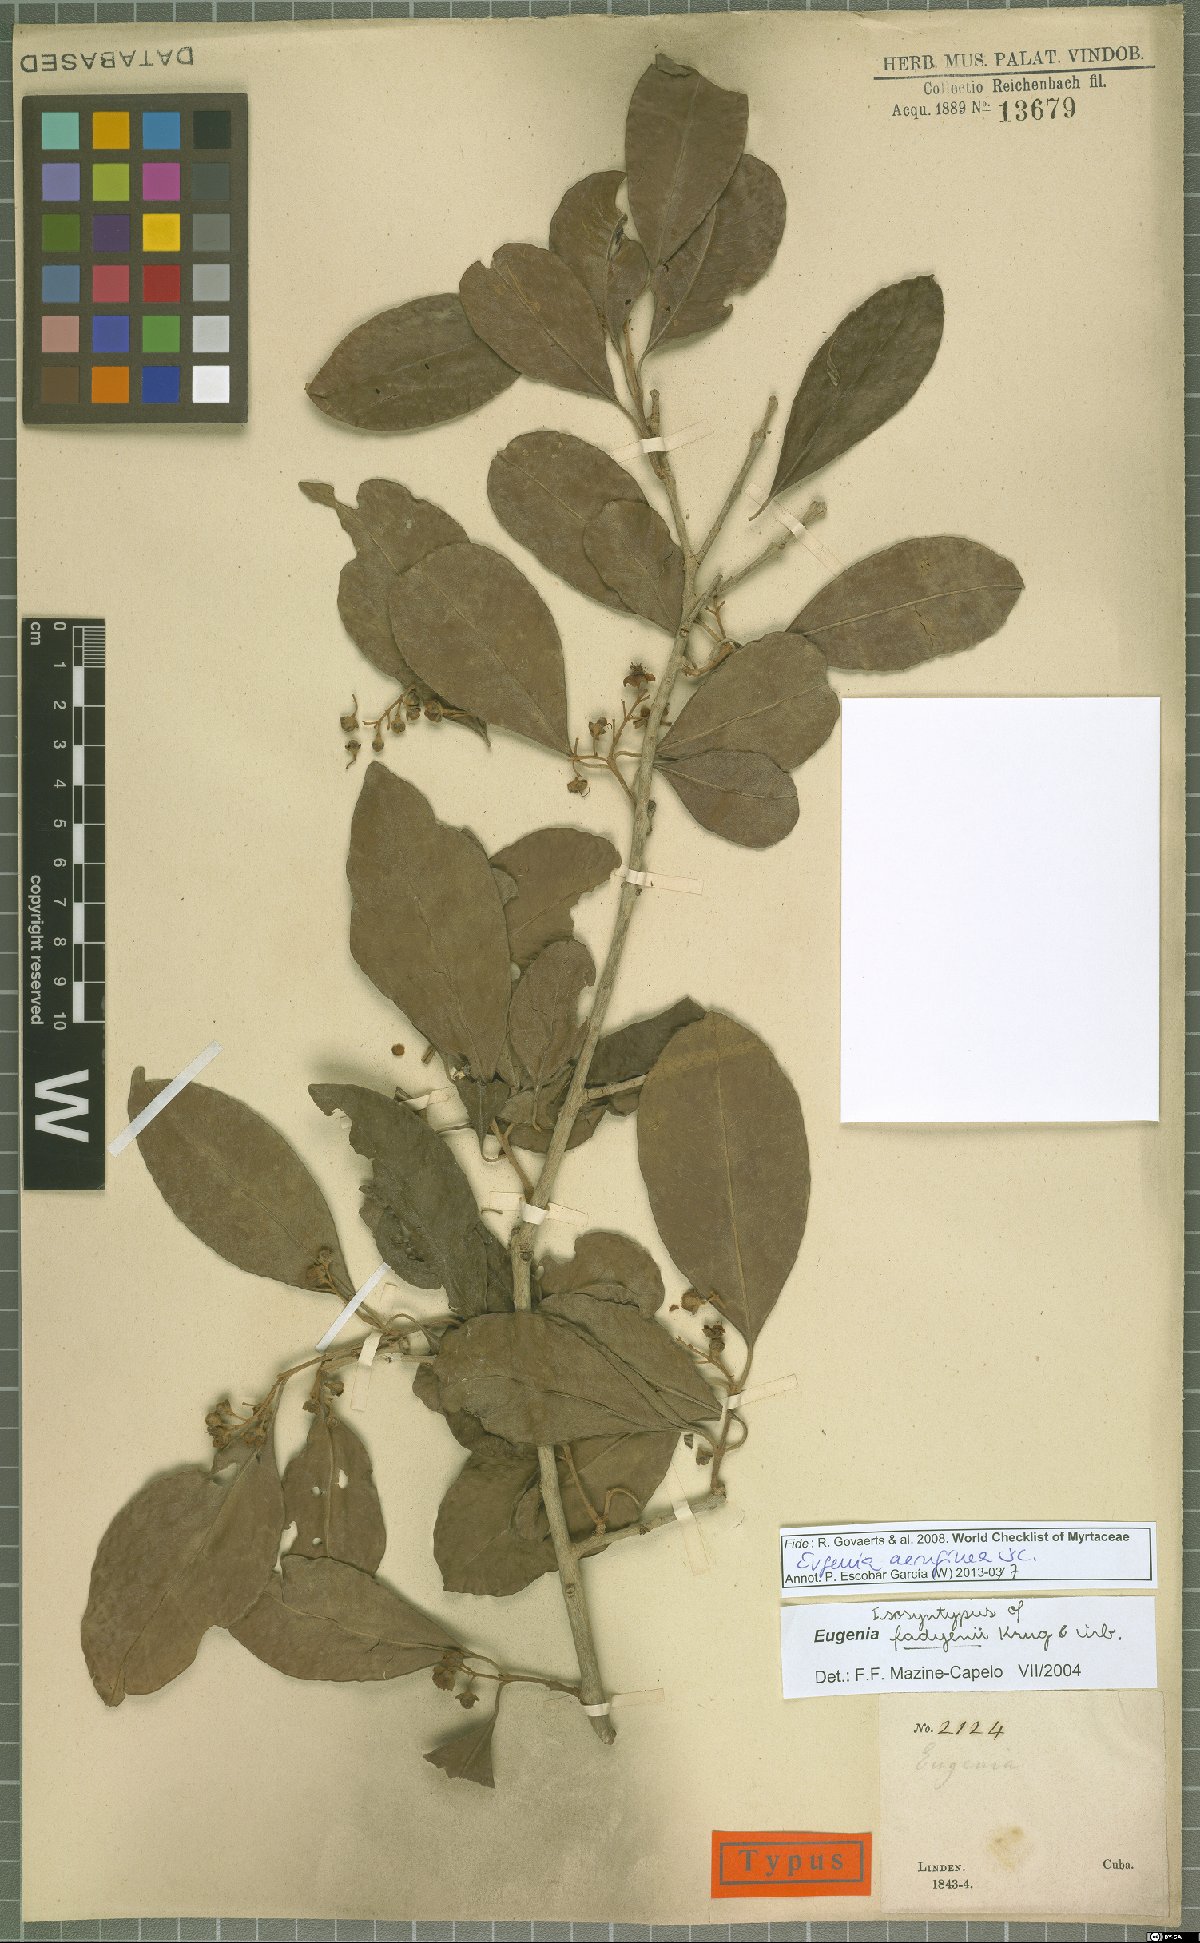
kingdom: Plantae
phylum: Tracheophyta
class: Magnoliopsida
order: Myrtales
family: Myrtaceae
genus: Eugenia
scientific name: Eugenia aeruginea
